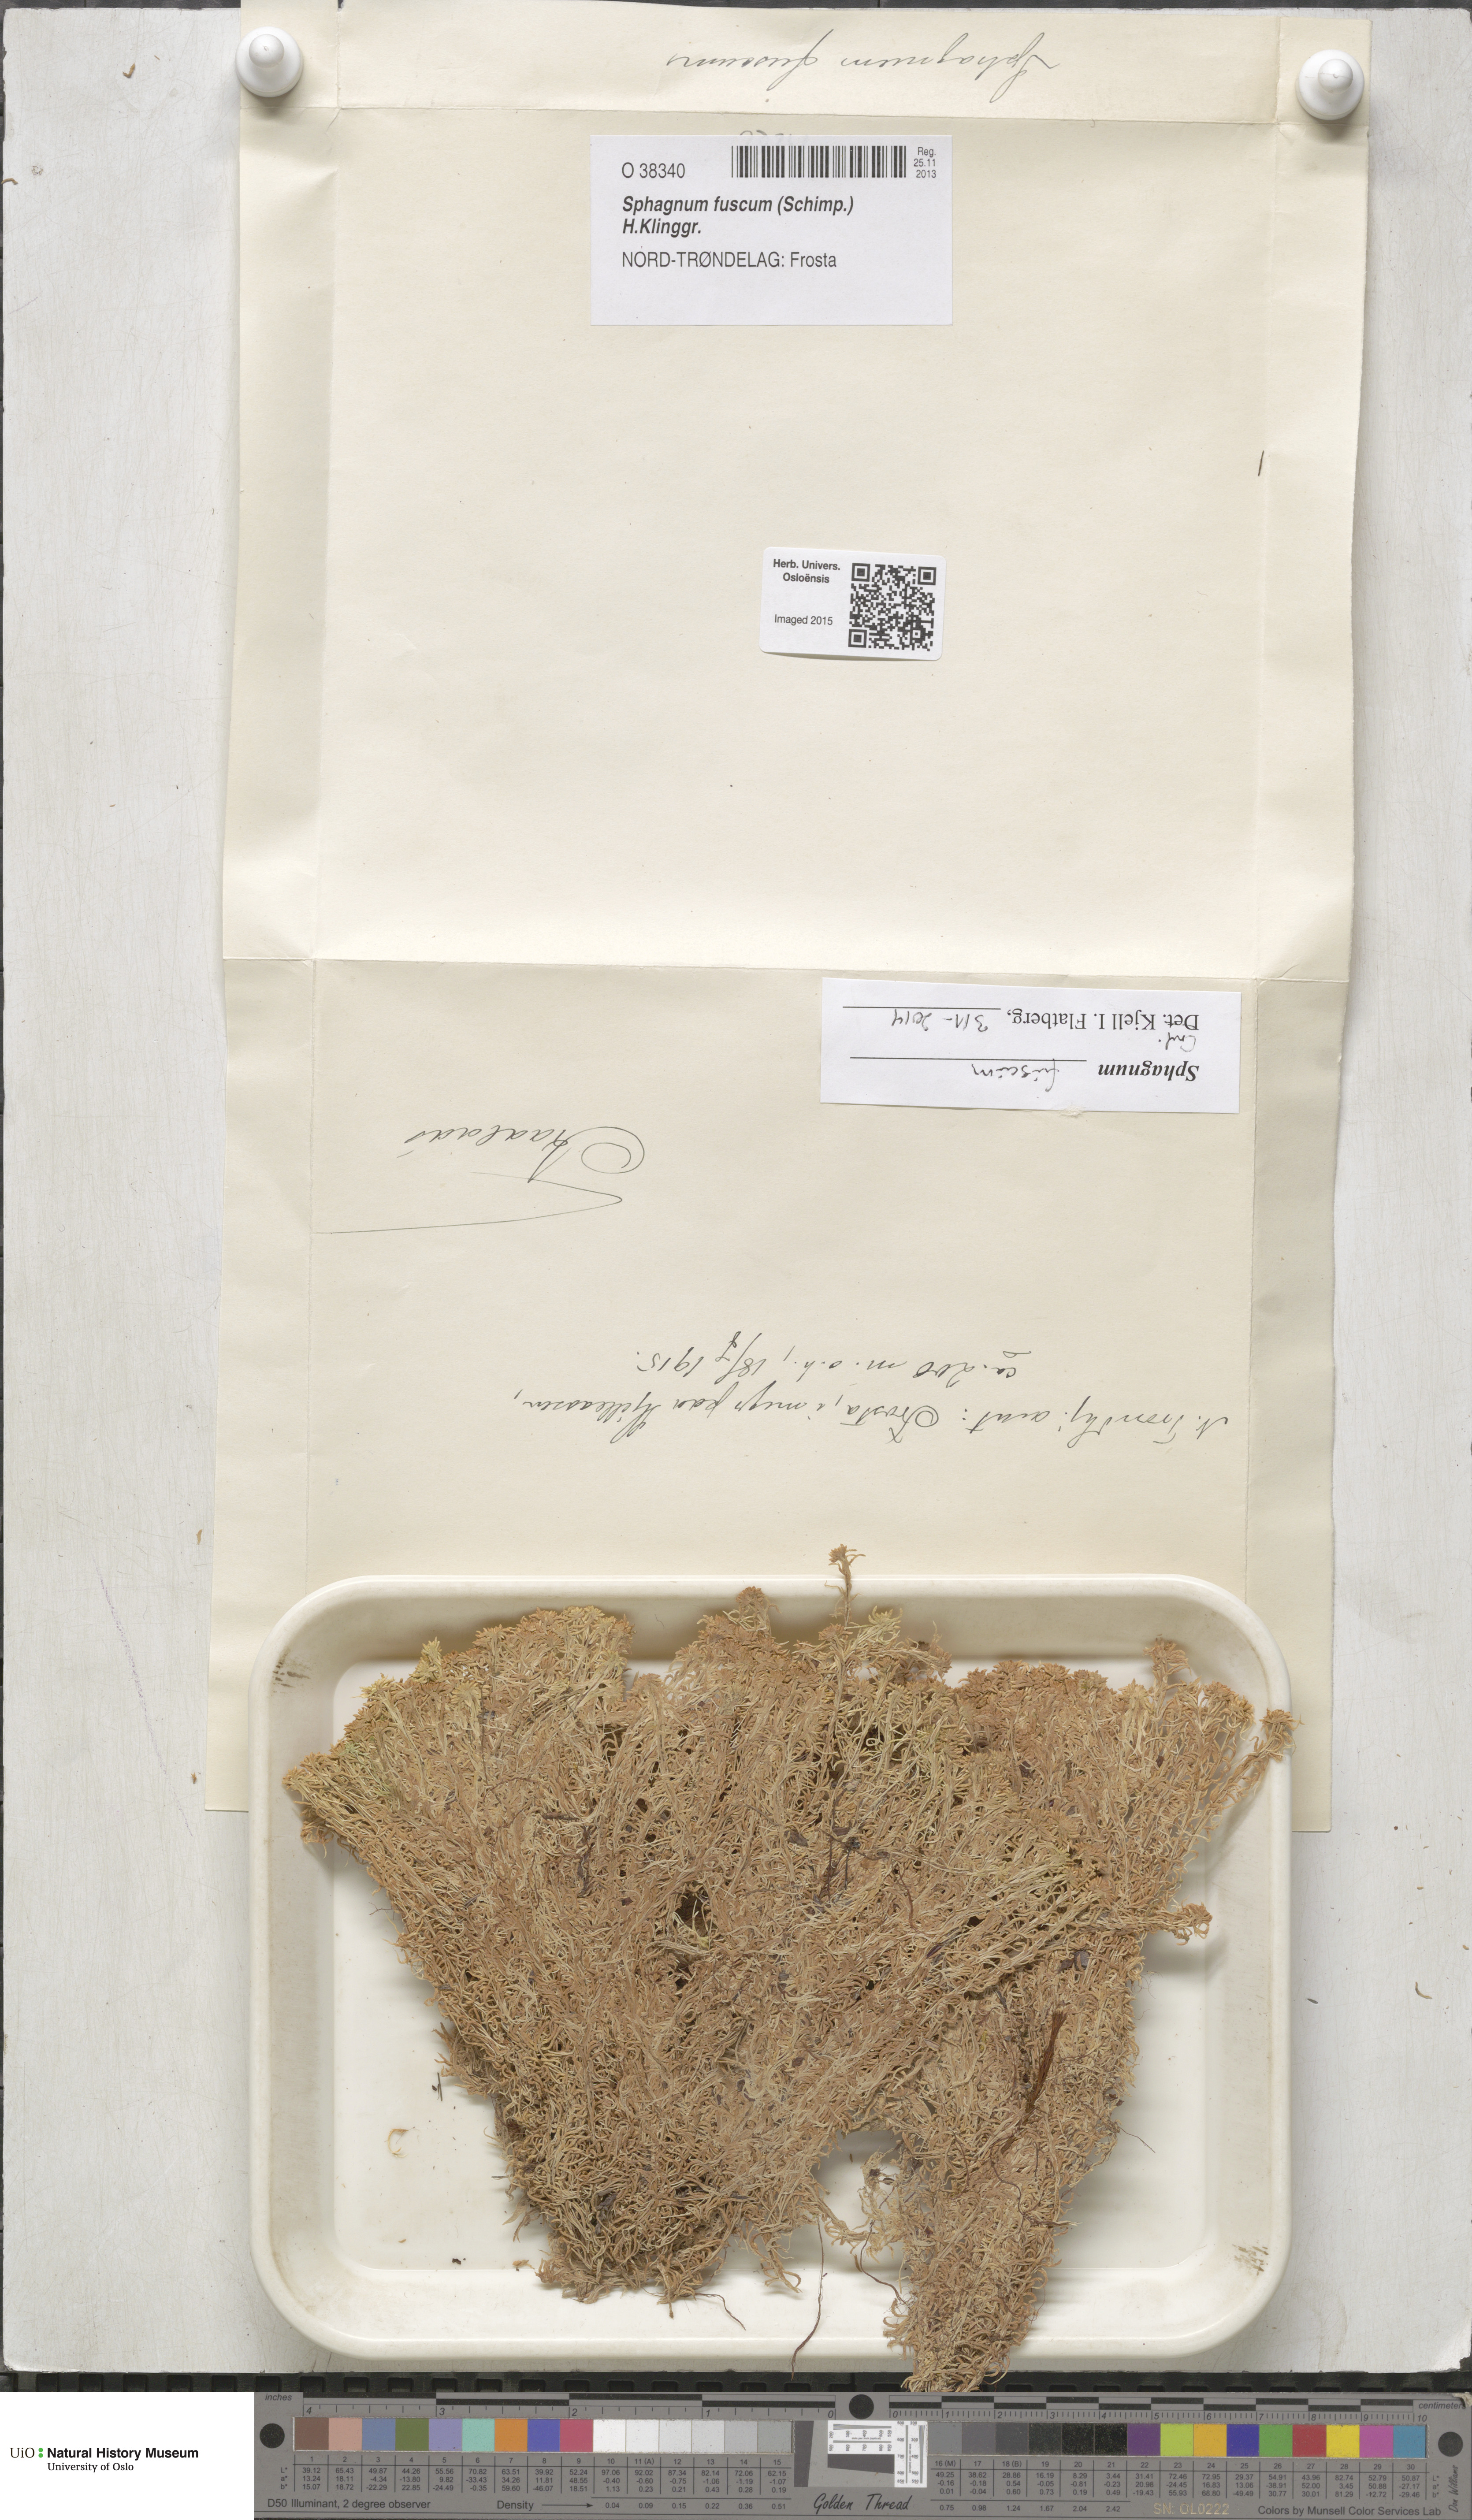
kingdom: Plantae
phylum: Bryophyta
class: Sphagnopsida
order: Sphagnales
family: Sphagnaceae
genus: Sphagnum
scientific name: Sphagnum fuscum
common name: Brown peat moss
